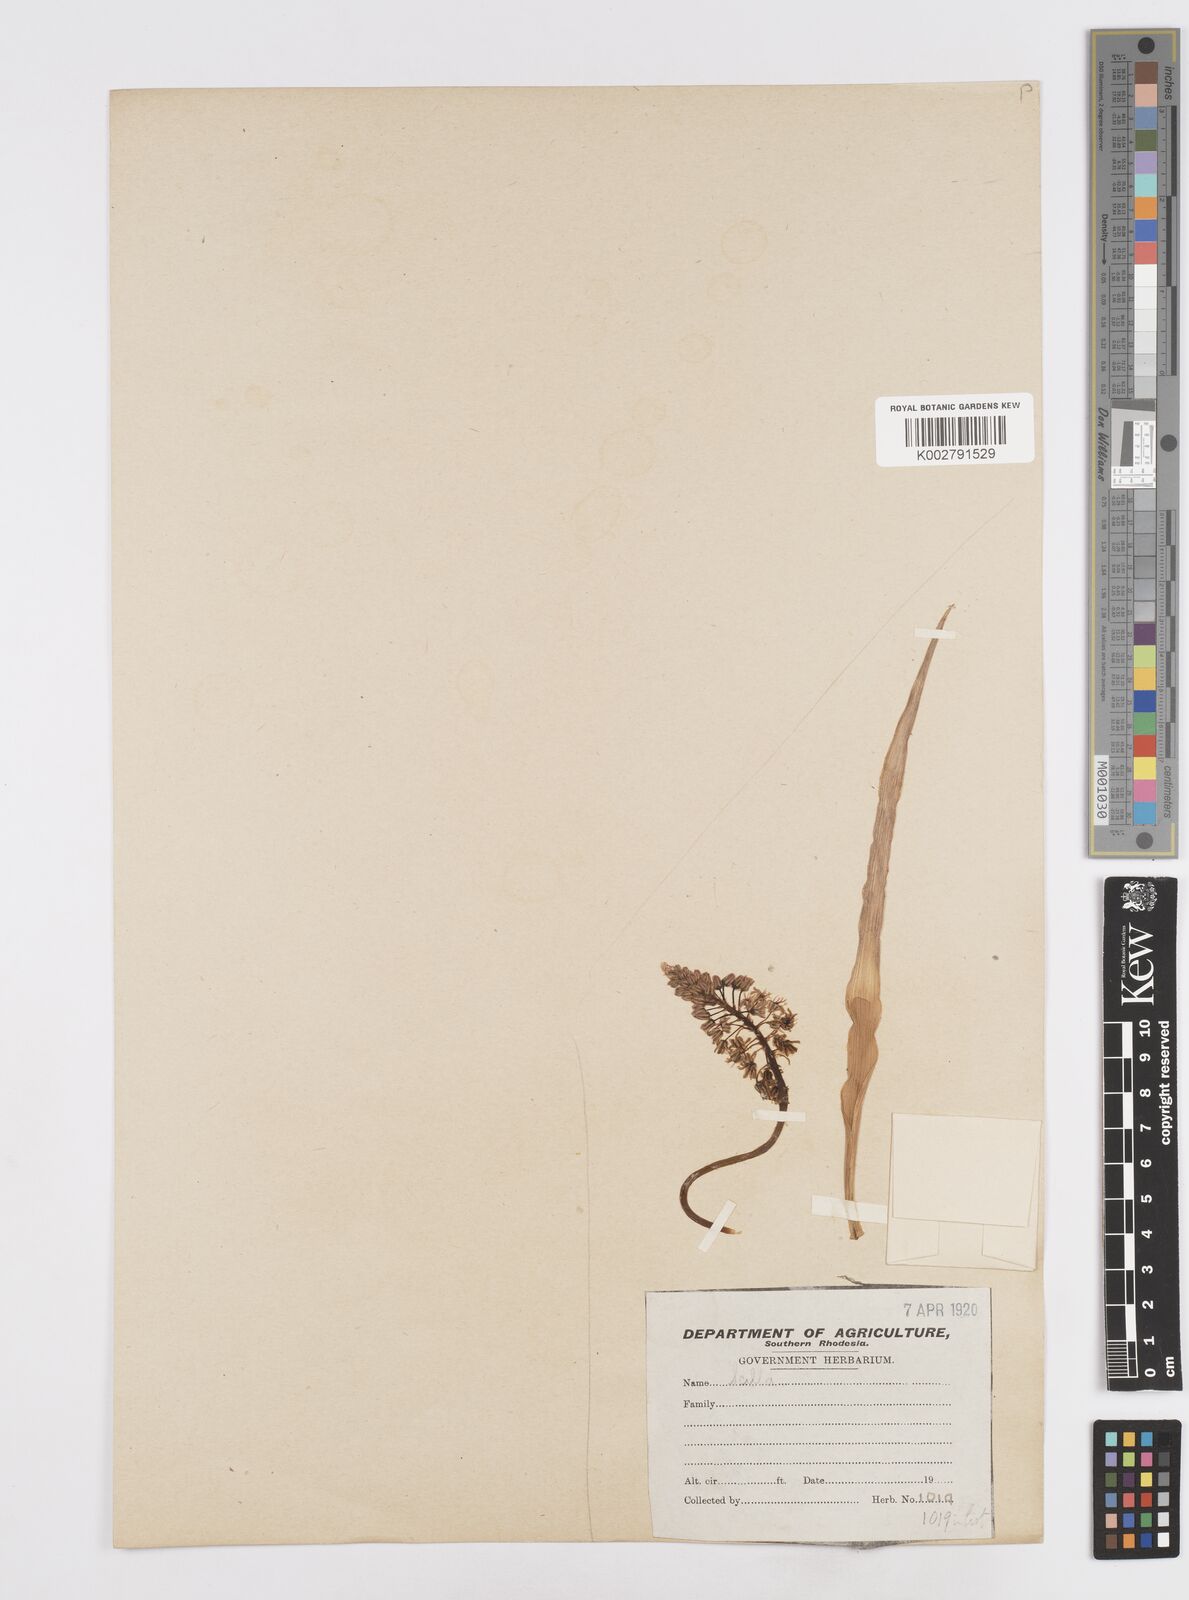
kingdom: Plantae
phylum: Tracheophyta
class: Liliopsida
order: Asparagales
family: Asparagaceae
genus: Scilla
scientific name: Scilla
